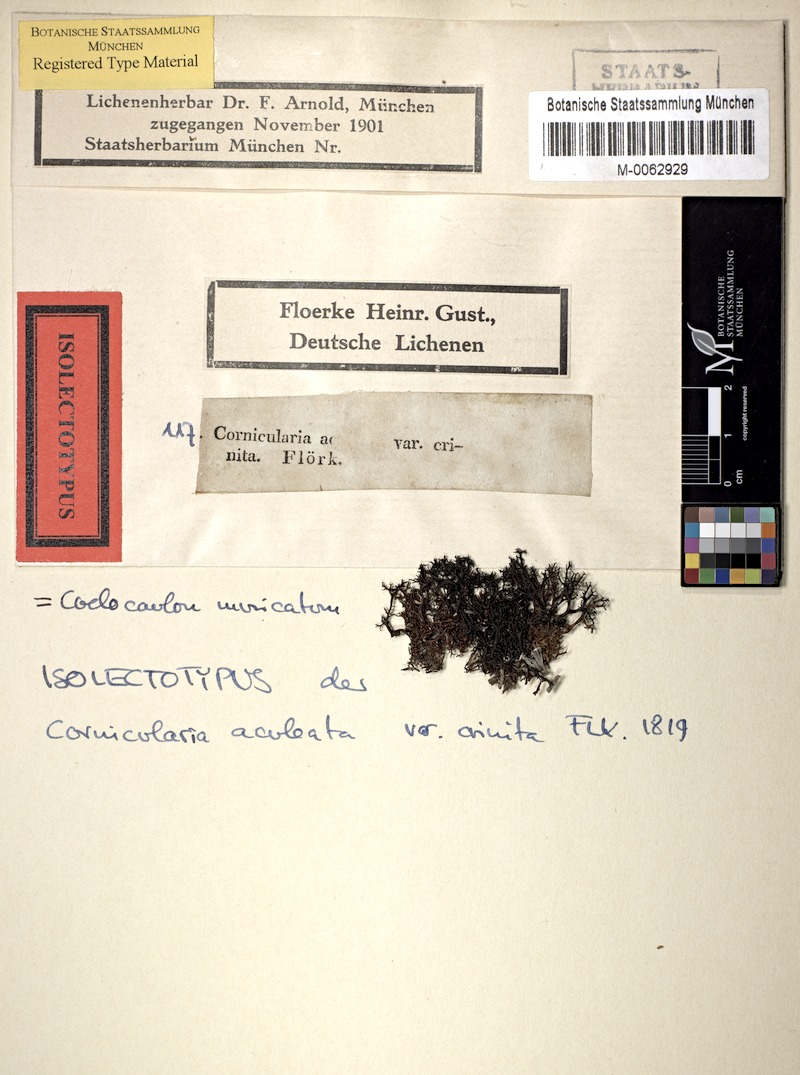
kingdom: Fungi
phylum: Ascomycota
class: Lecanoromycetes
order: Lecanorales
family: Parmeliaceae
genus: Cetraria
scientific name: Cetraria aculeata
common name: Spiny heath lichen
